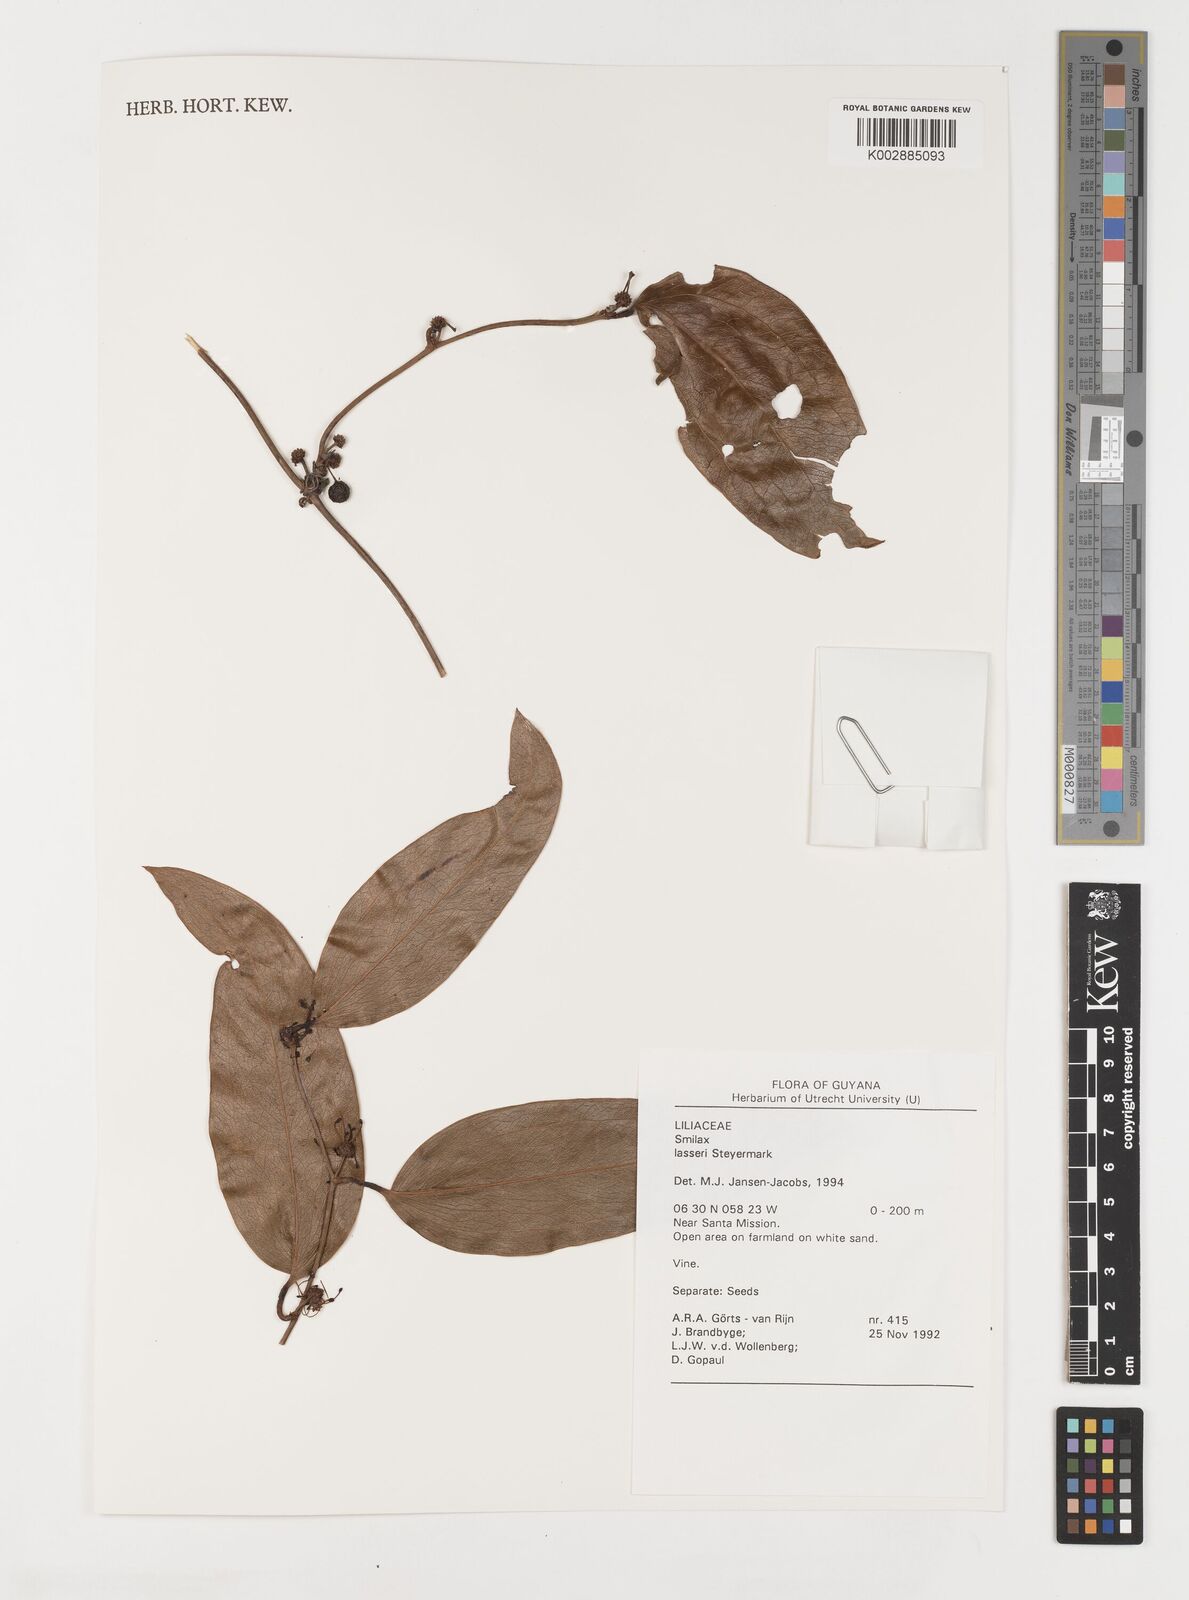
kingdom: Plantae
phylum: Tracheophyta
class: Liliopsida
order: Liliales
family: Smilacaceae
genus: Smilax
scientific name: Smilax domingensis
